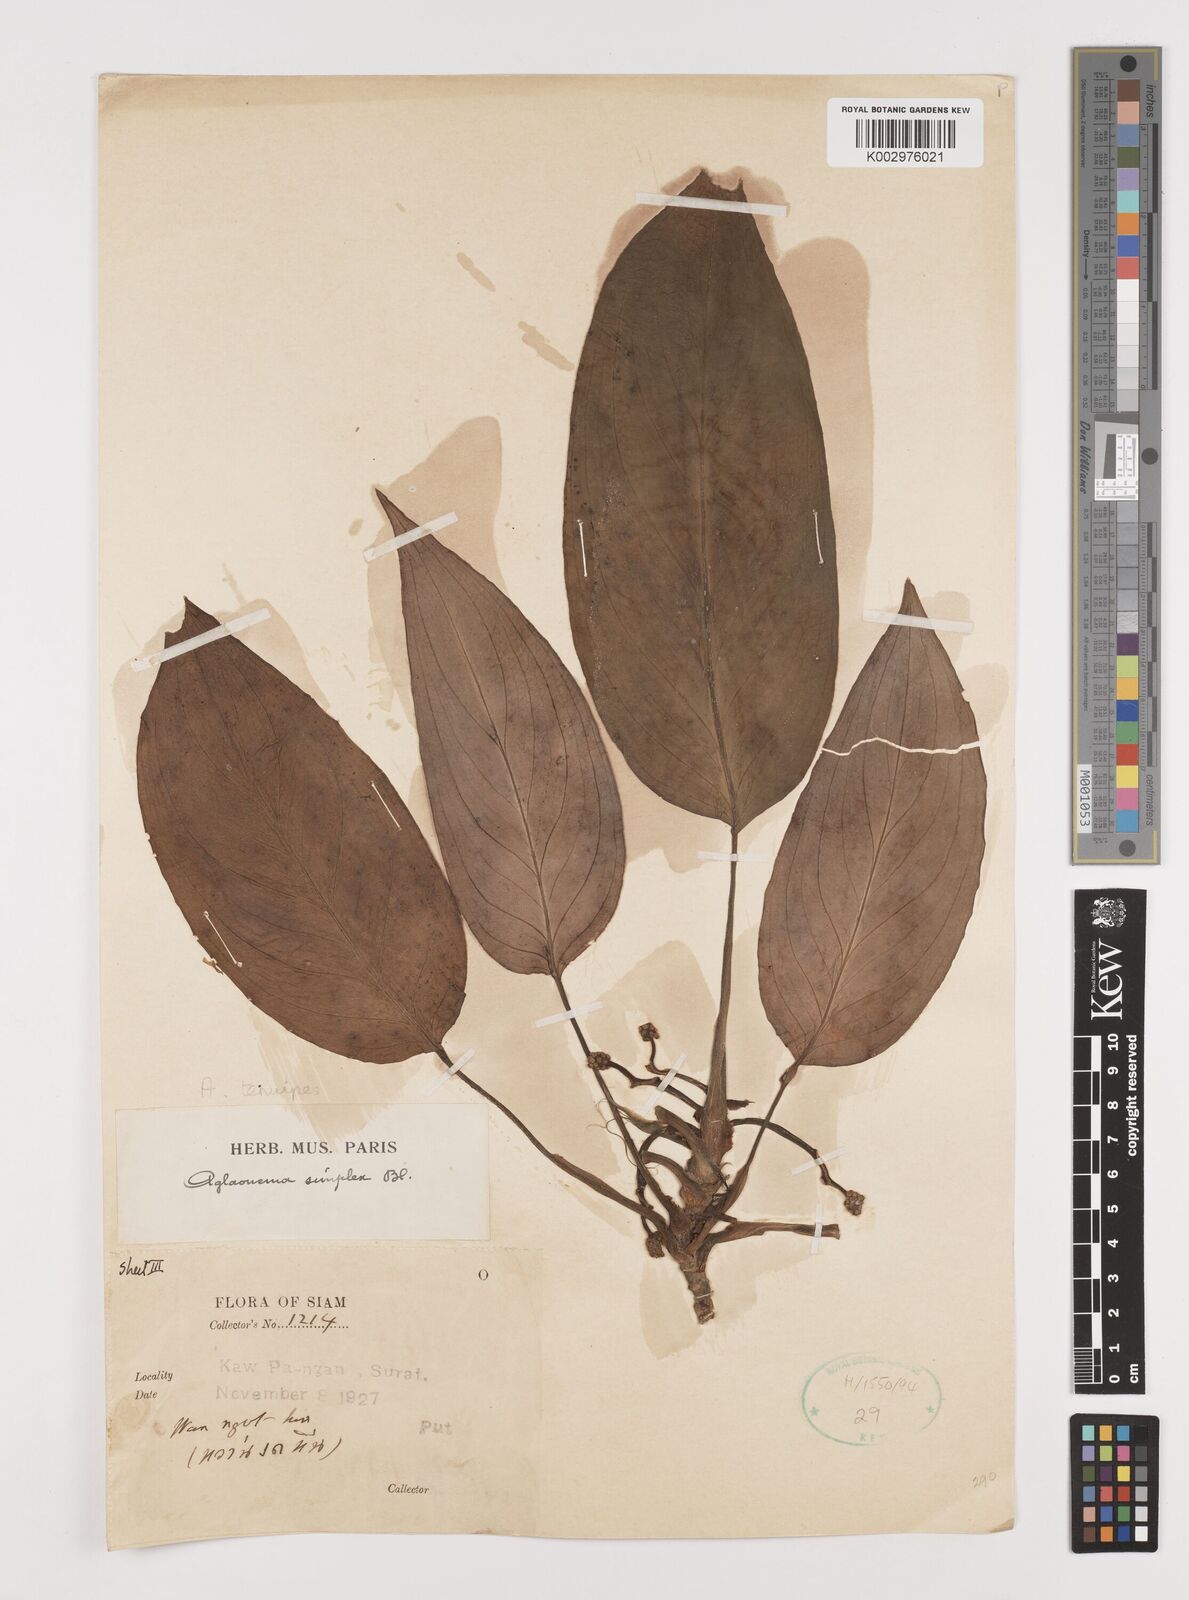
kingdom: Plantae
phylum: Tracheophyta
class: Liliopsida
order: Alismatales
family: Araceae
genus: Aglaonema
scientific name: Aglaonema simplex
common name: Malayan-sword
